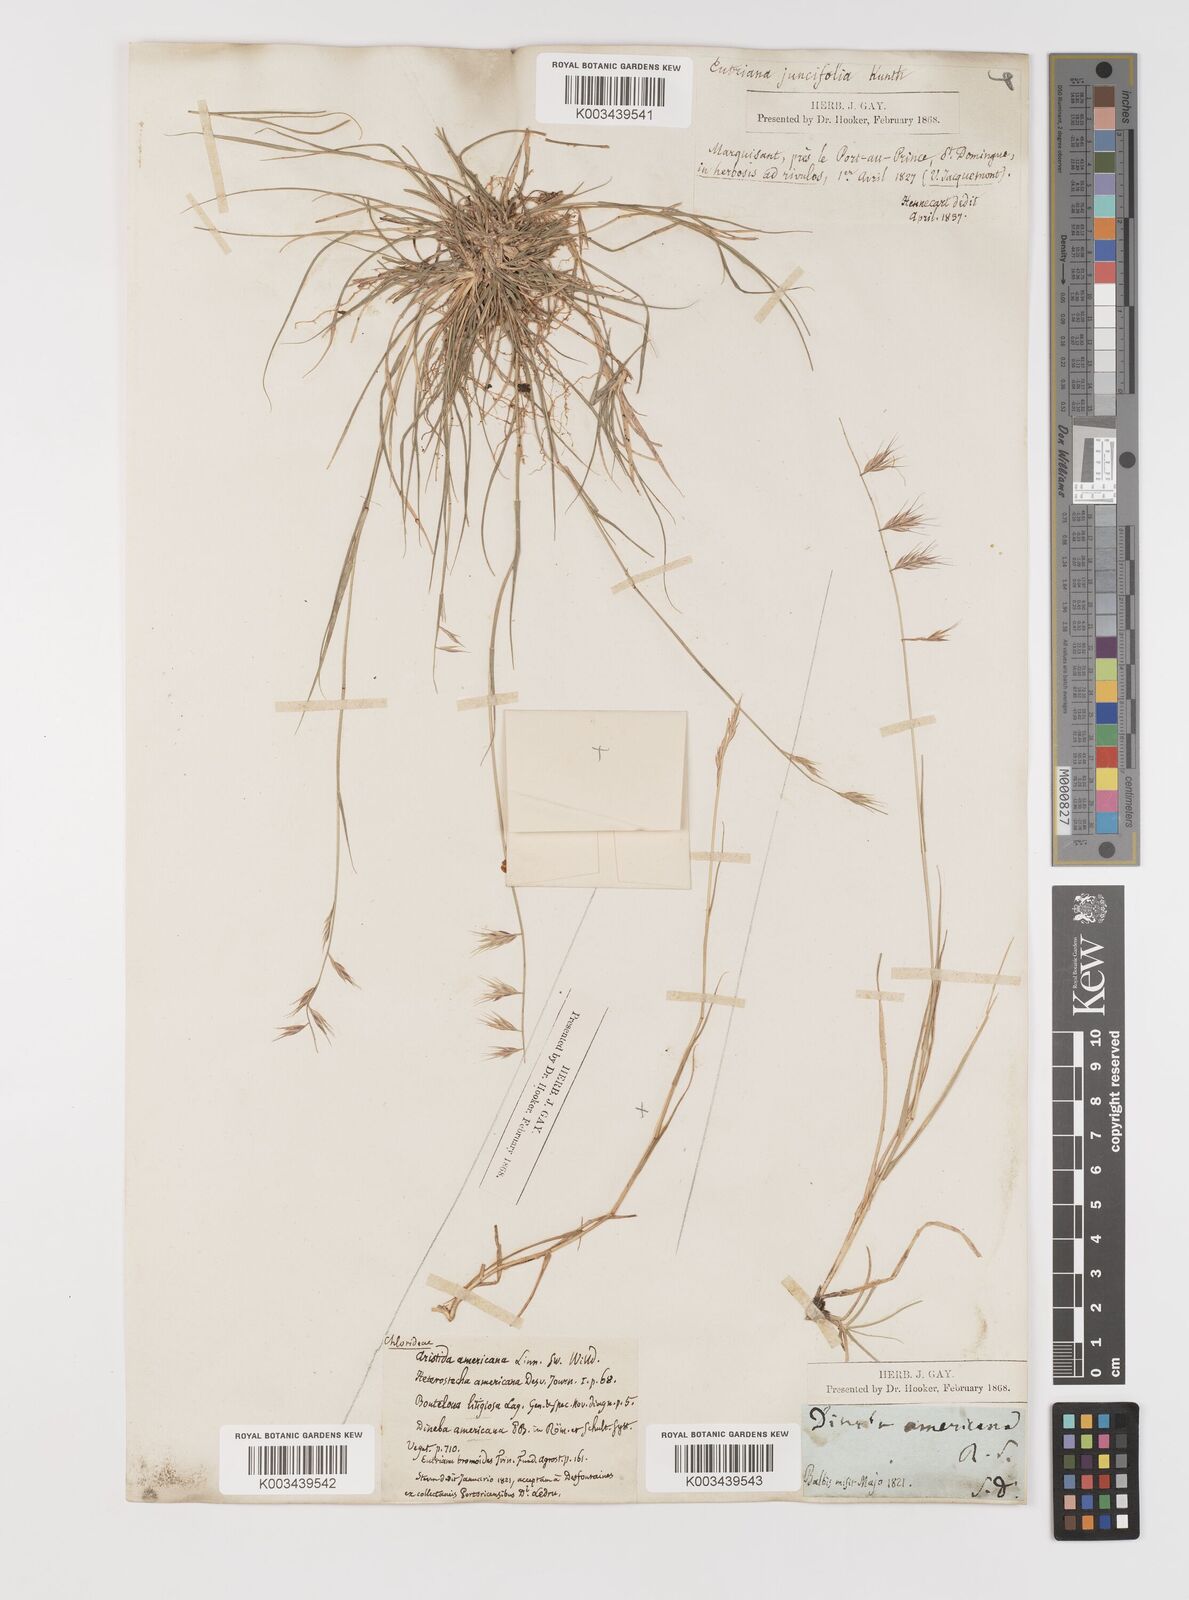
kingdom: Plantae
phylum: Tracheophyta
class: Liliopsida
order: Poales
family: Poaceae
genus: Bouteloua
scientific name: Bouteloua repens
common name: Slender grama
